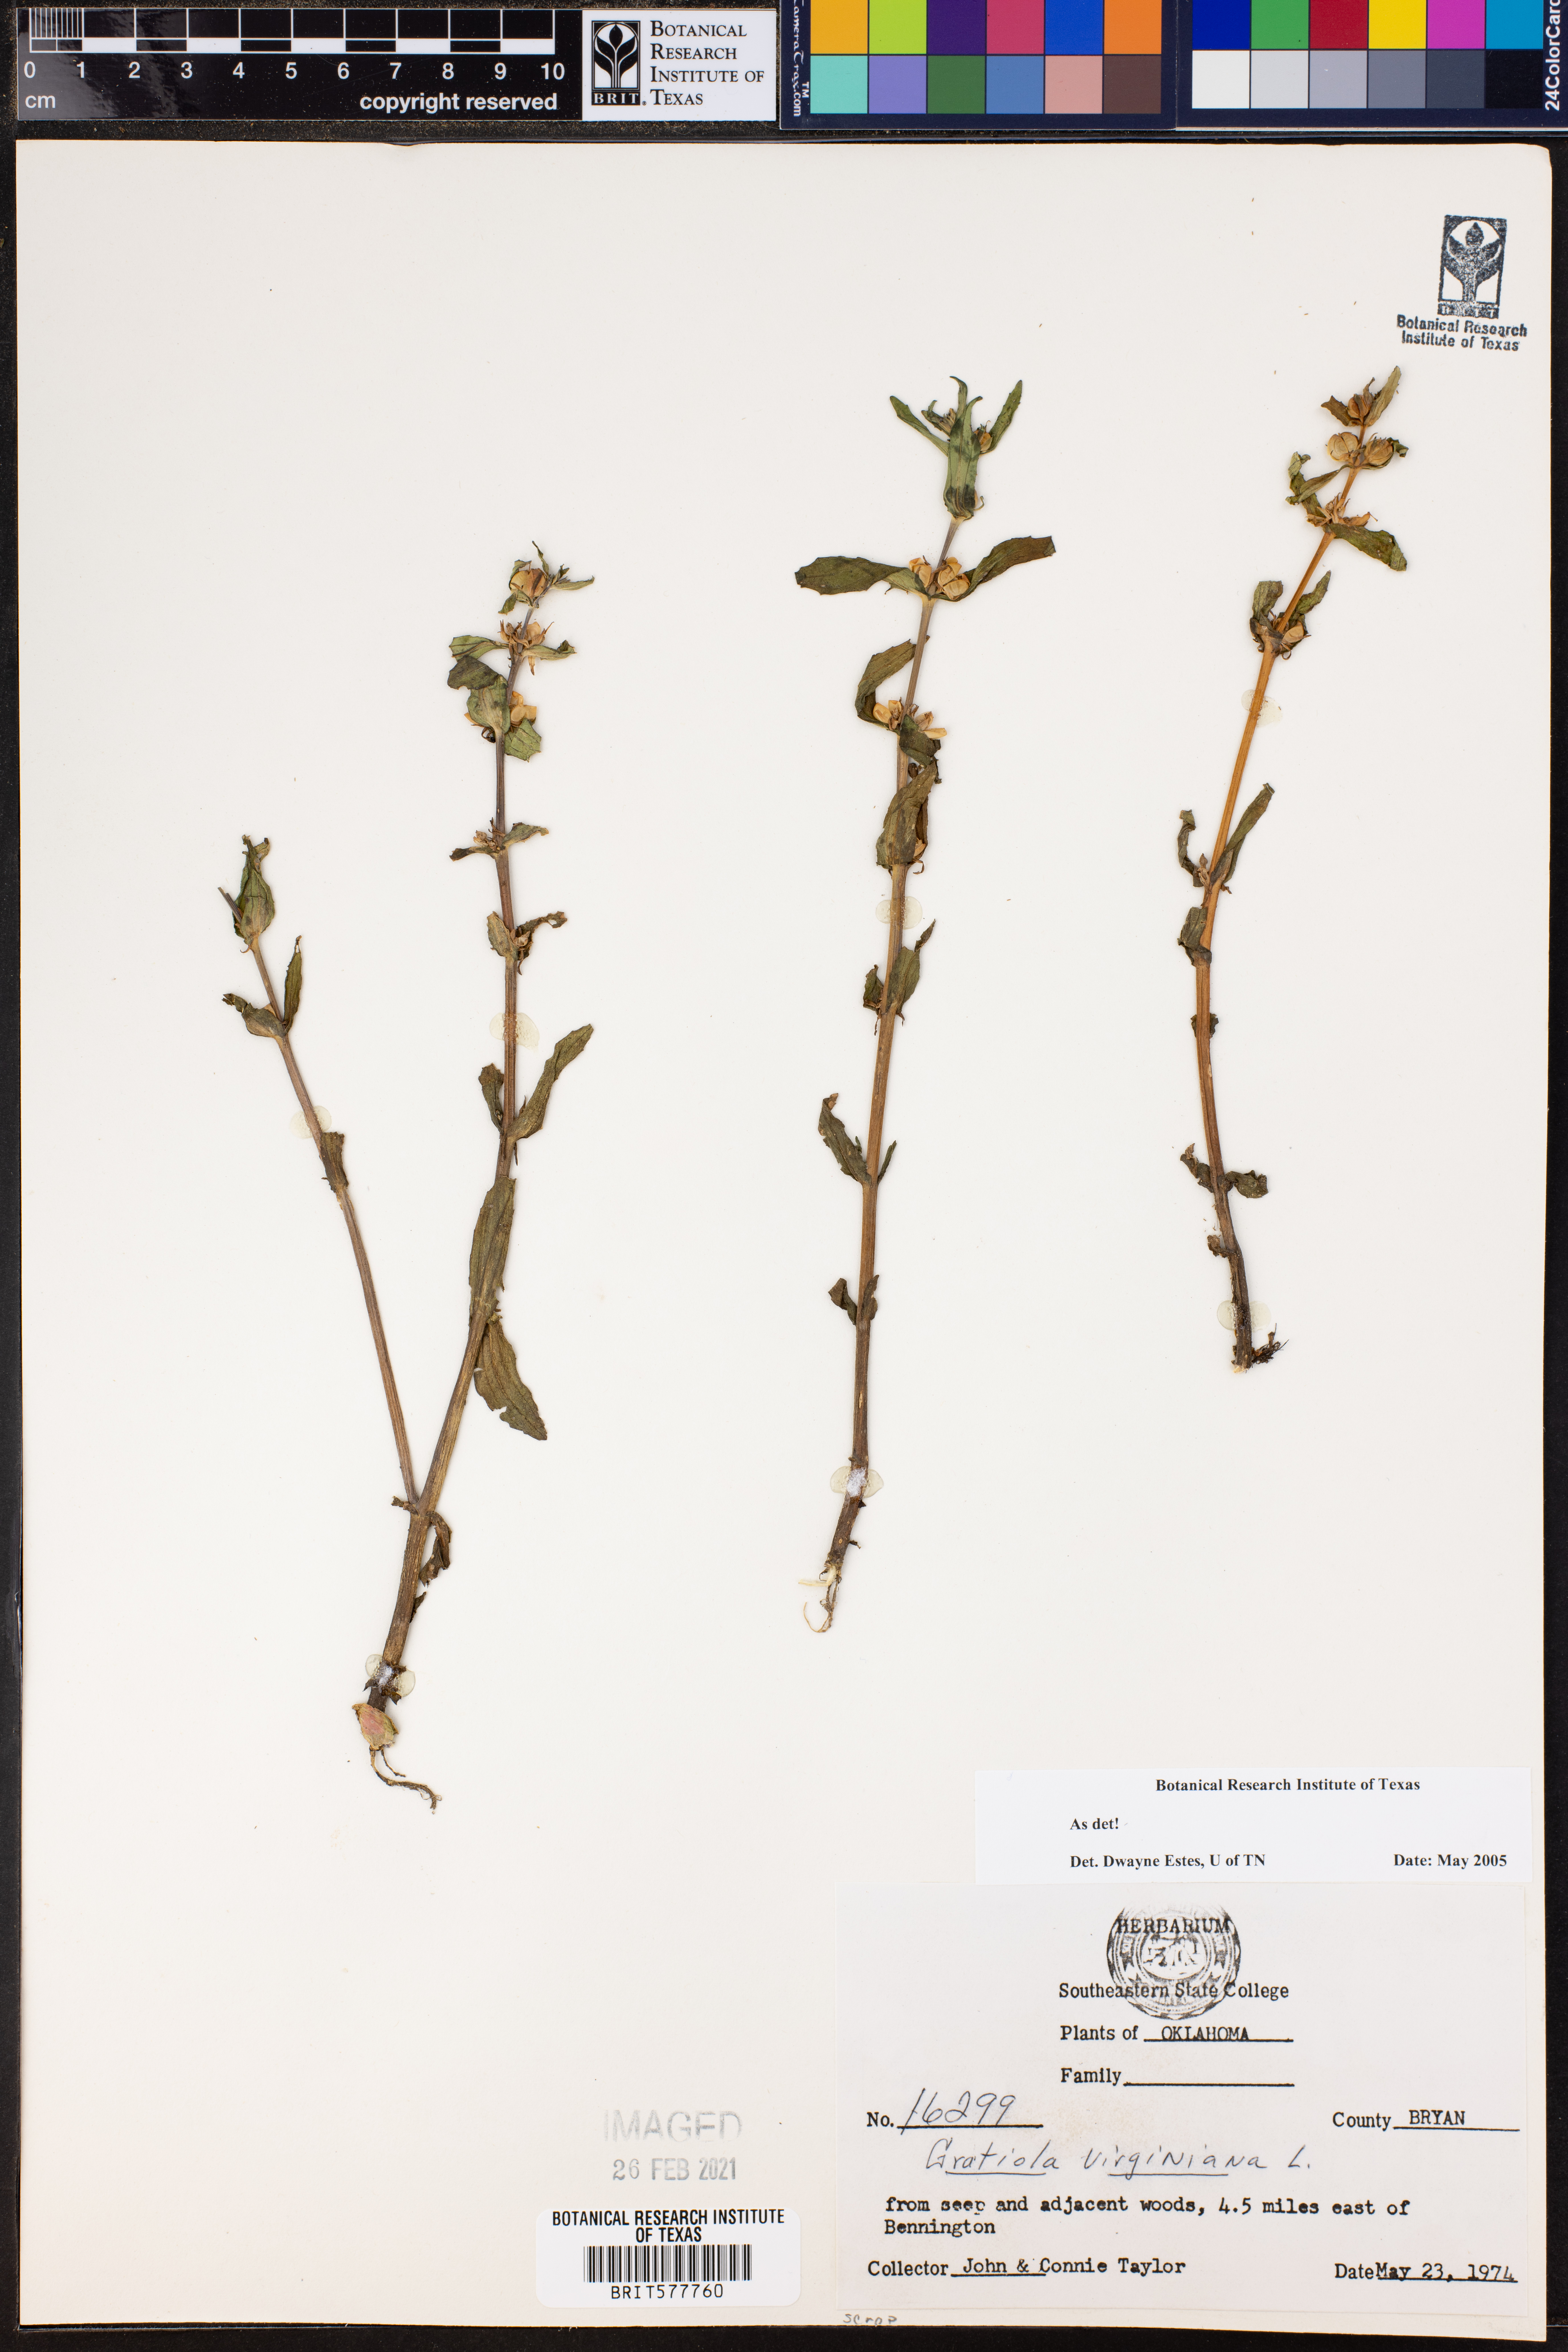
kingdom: Plantae
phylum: Tracheophyta
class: Magnoliopsida
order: Lamiales
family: Plantaginaceae
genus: Gratiola
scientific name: Gratiola virginiana
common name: Roundfruit hedgehyssop
